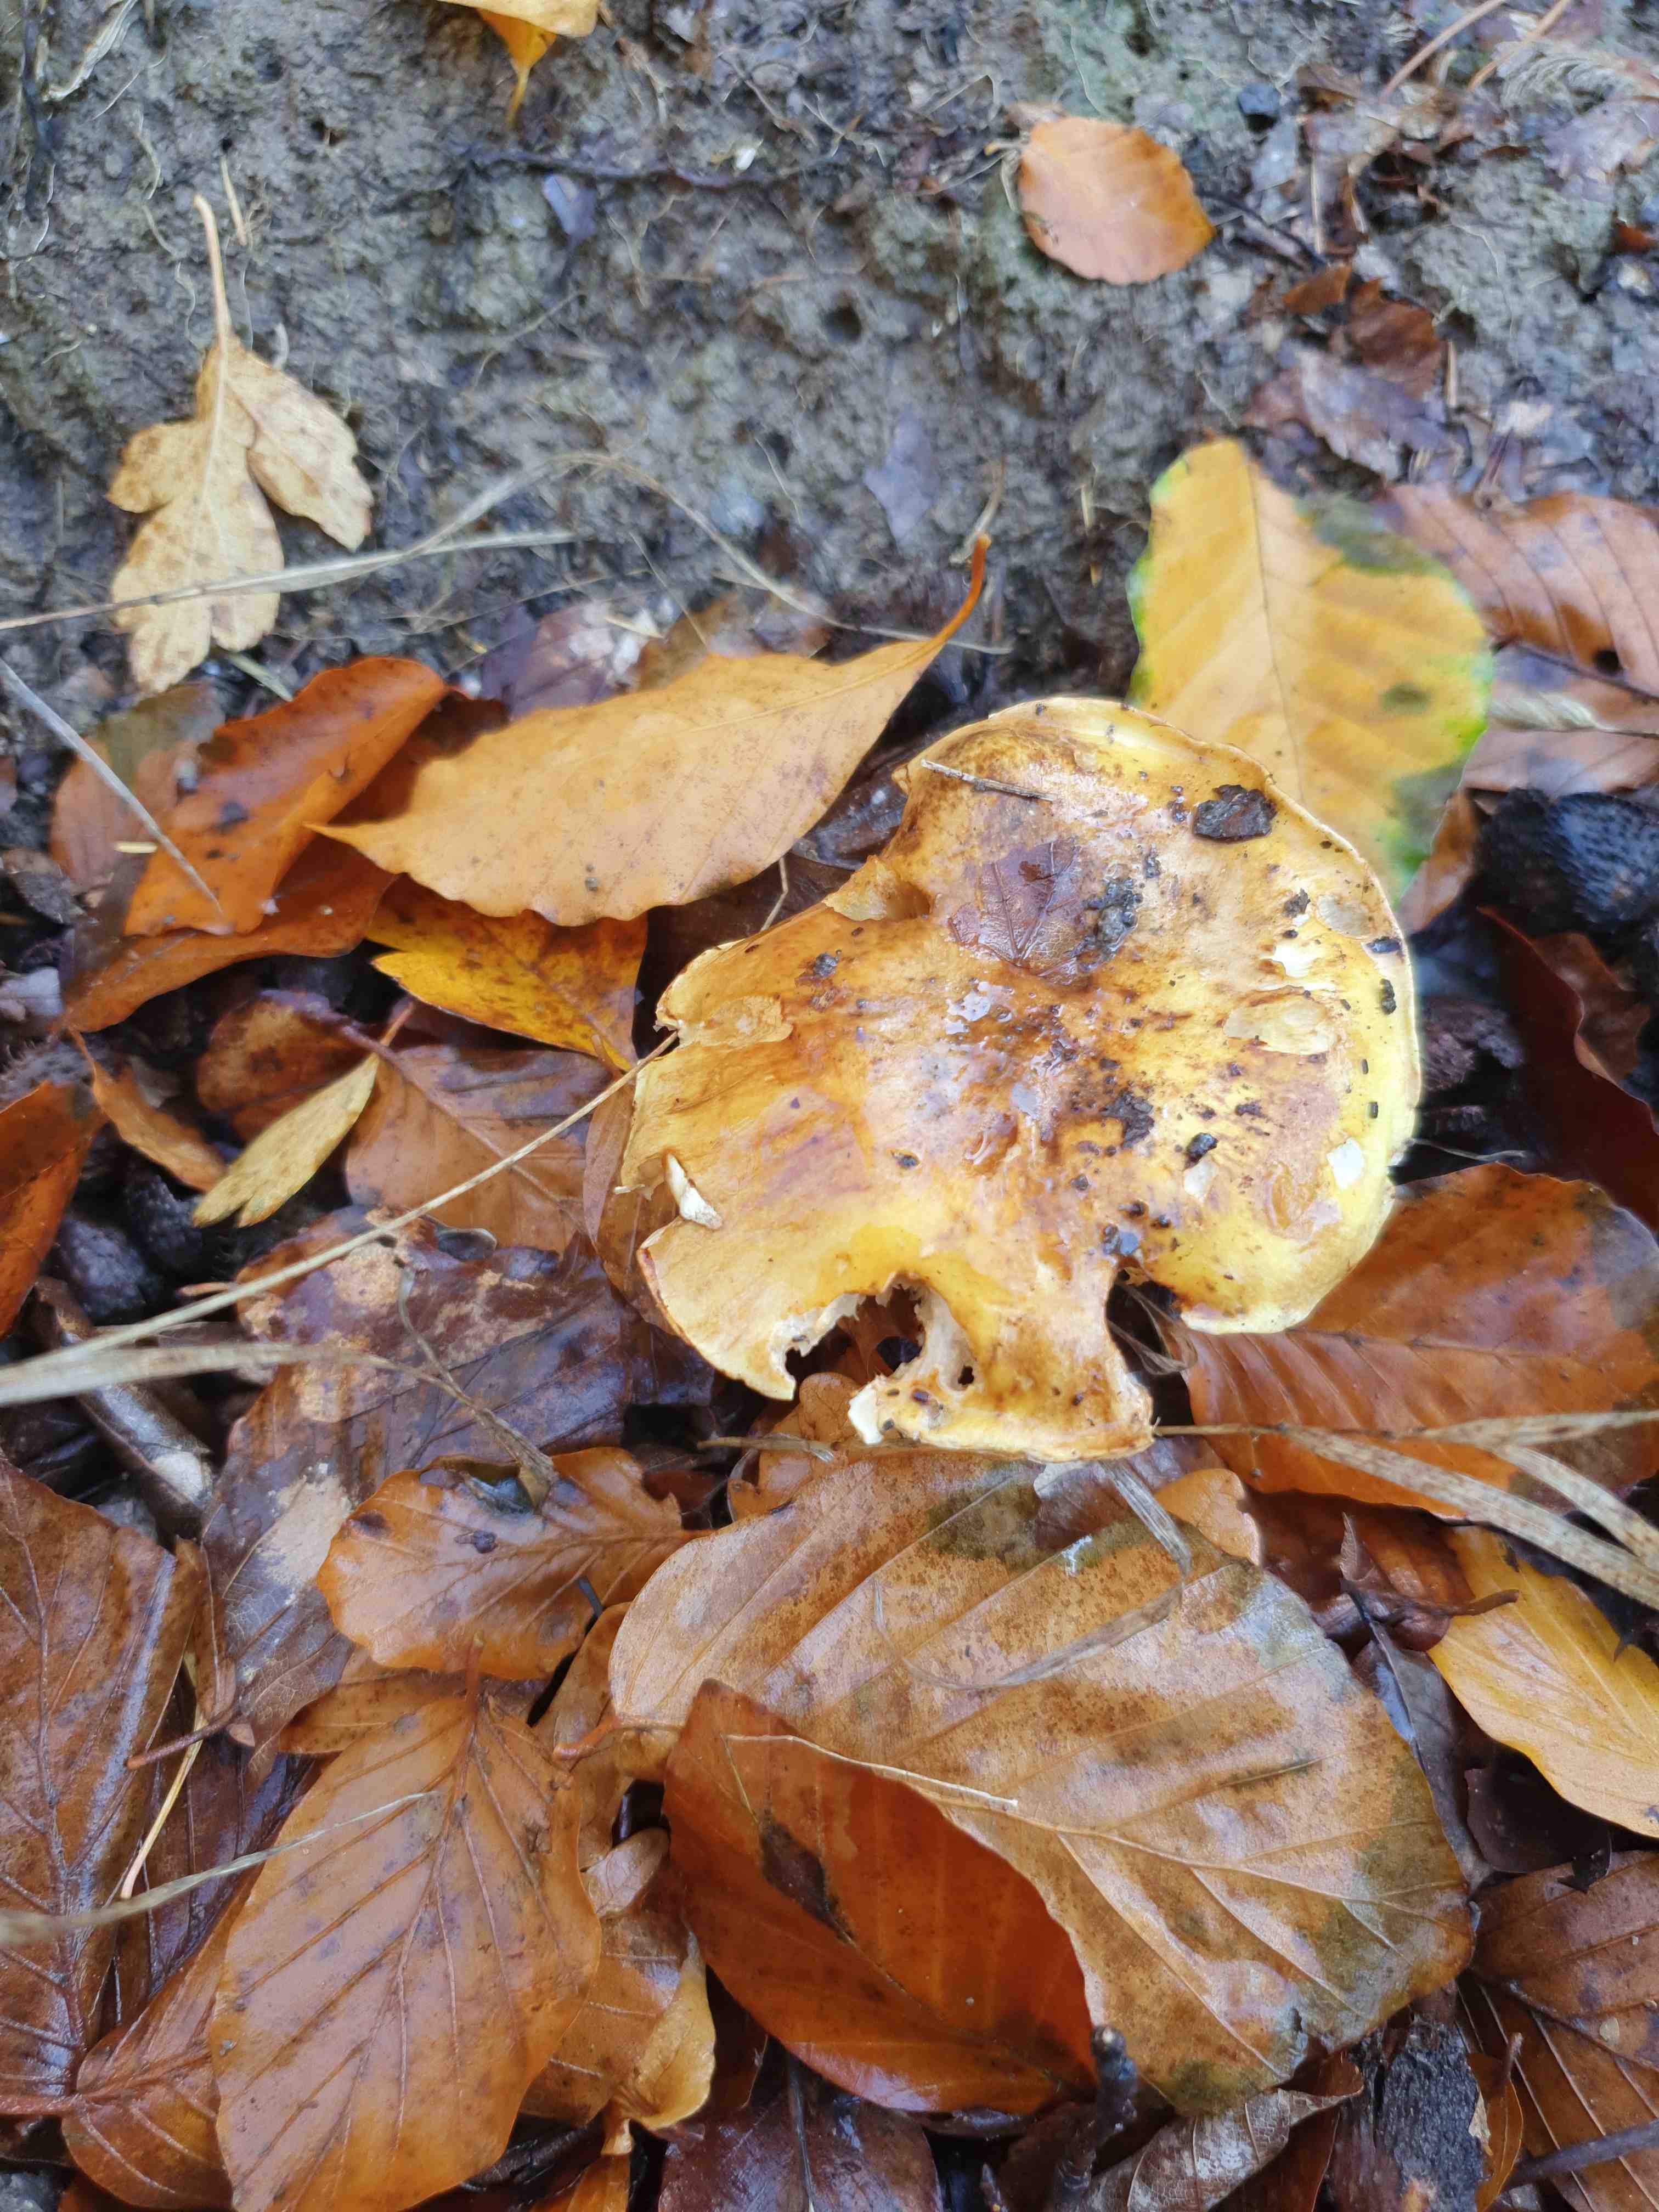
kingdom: Fungi
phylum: Basidiomycota
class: Agaricomycetes
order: Agaricales
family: Cortinariaceae
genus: Cortinarius
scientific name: Cortinarius
